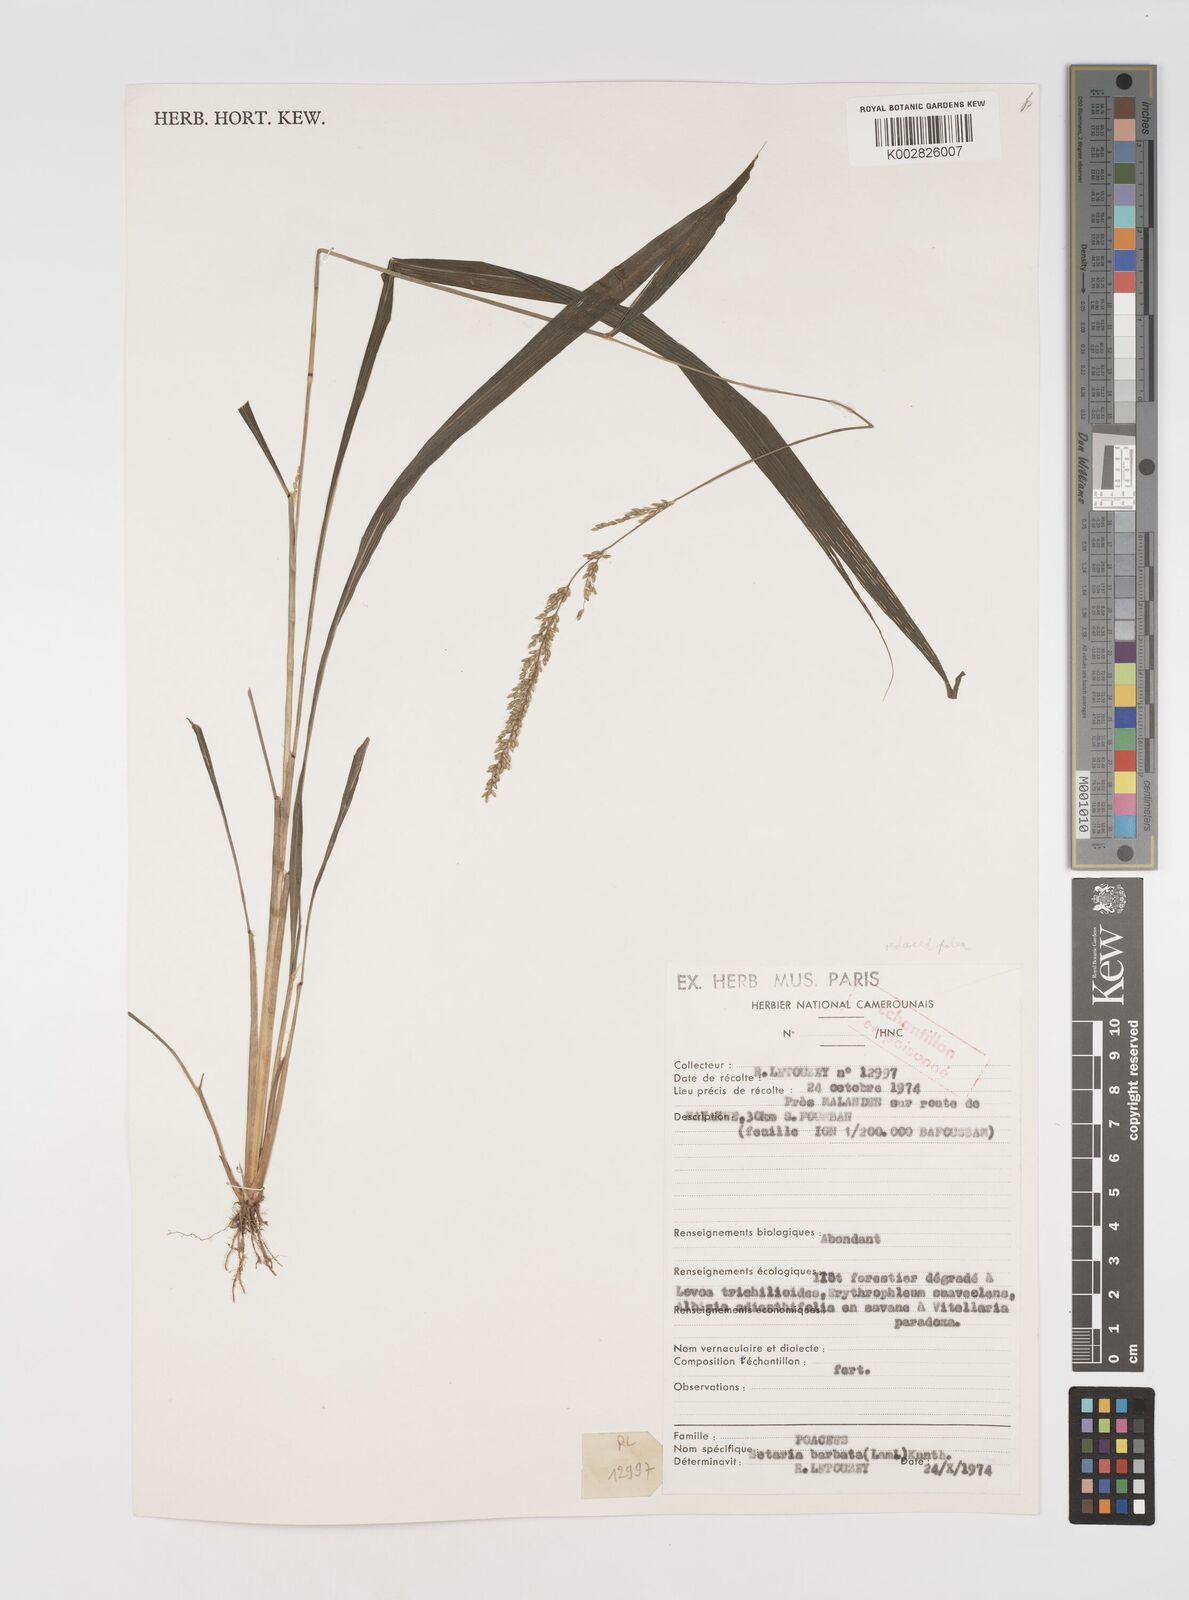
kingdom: Plantae
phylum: Tracheophyta
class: Liliopsida
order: Poales
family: Poaceae
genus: Setaria
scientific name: Setaria megaphylla
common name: Bigleaf bristlegrass
